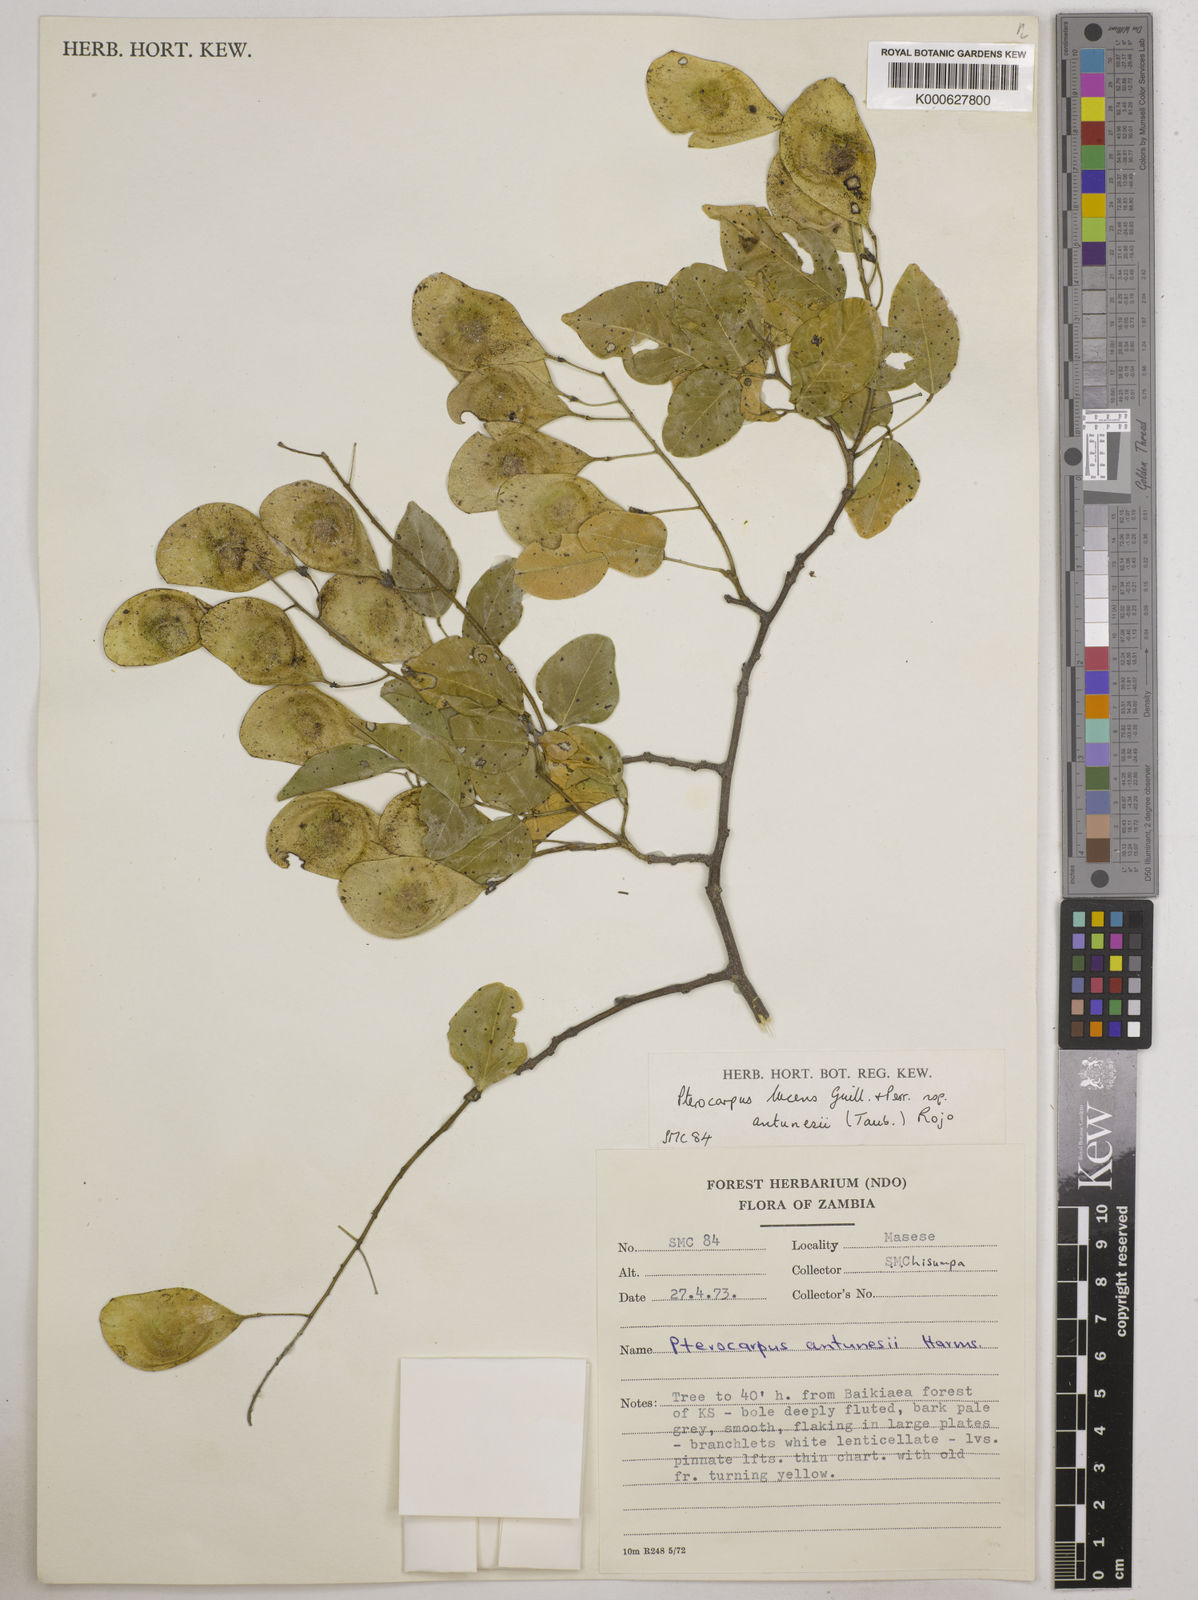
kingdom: Plantae
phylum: Tracheophyta
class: Magnoliopsida
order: Fabales
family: Fabaceae
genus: Pterocarpus
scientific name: Pterocarpus lucens
